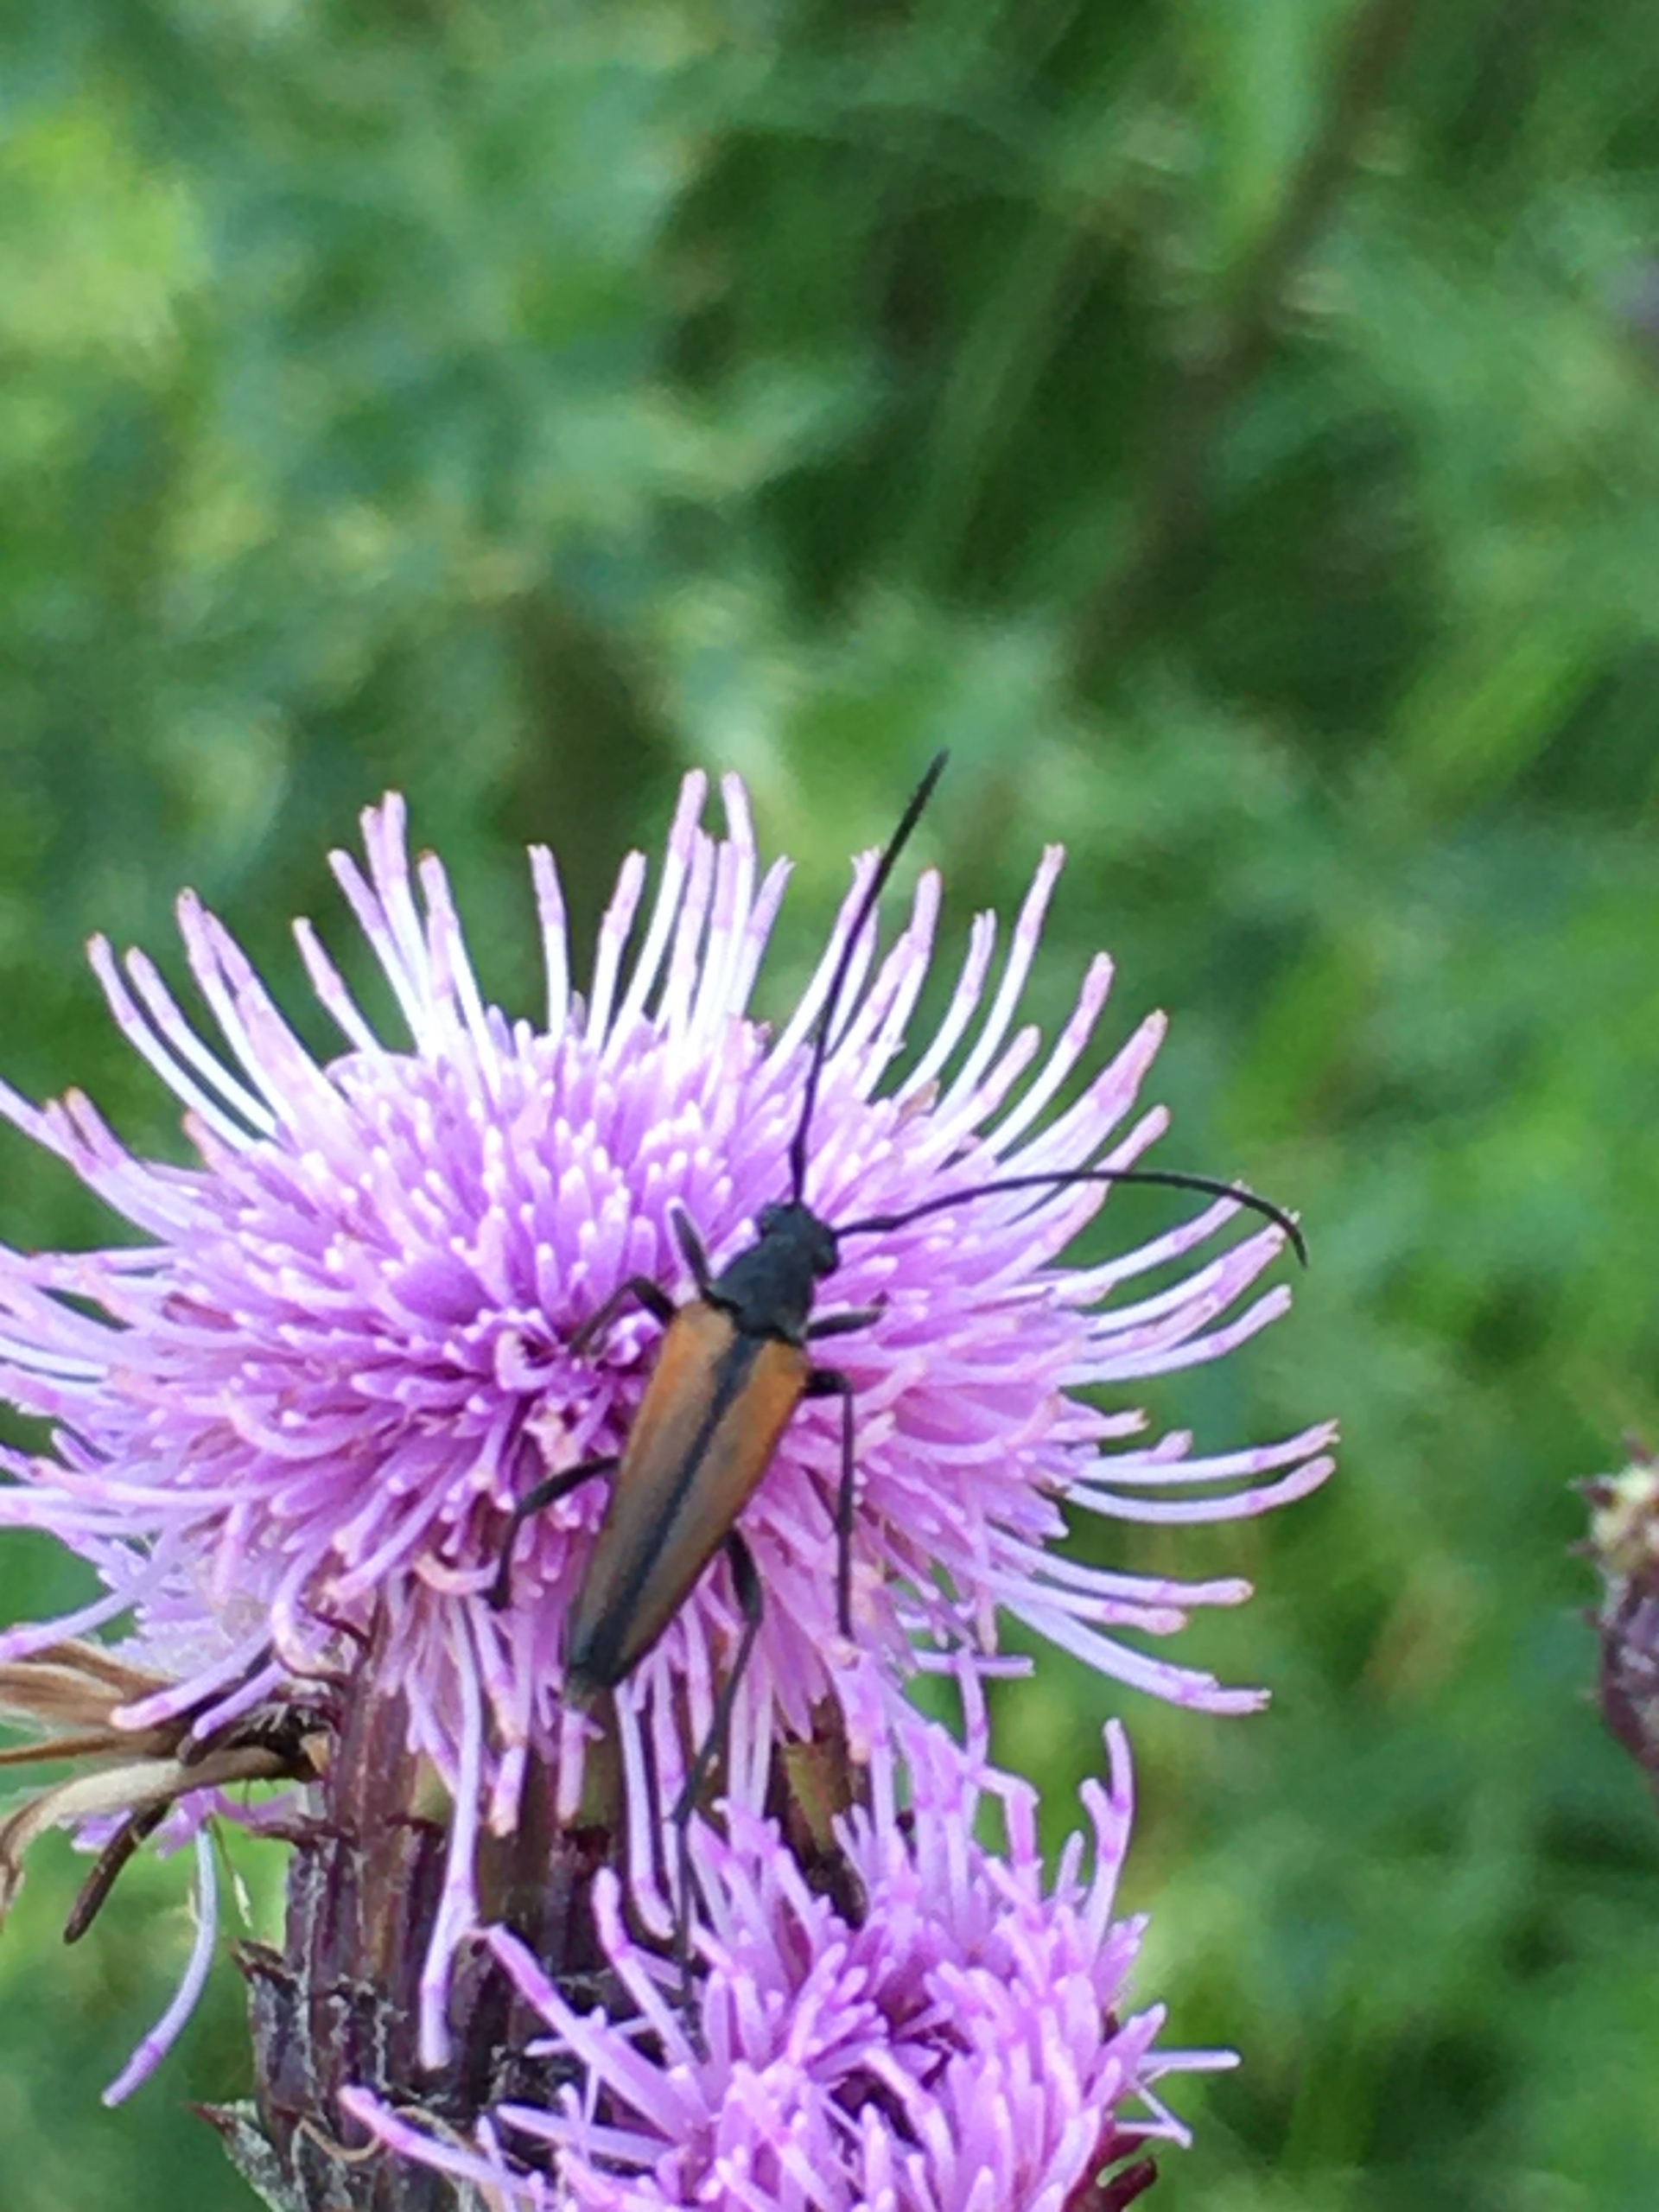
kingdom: Animalia
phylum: Arthropoda
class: Insecta
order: Coleoptera
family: Cerambycidae
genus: Stenurella
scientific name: Stenurella melanura
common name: Sortsømmet blomsterbuk
